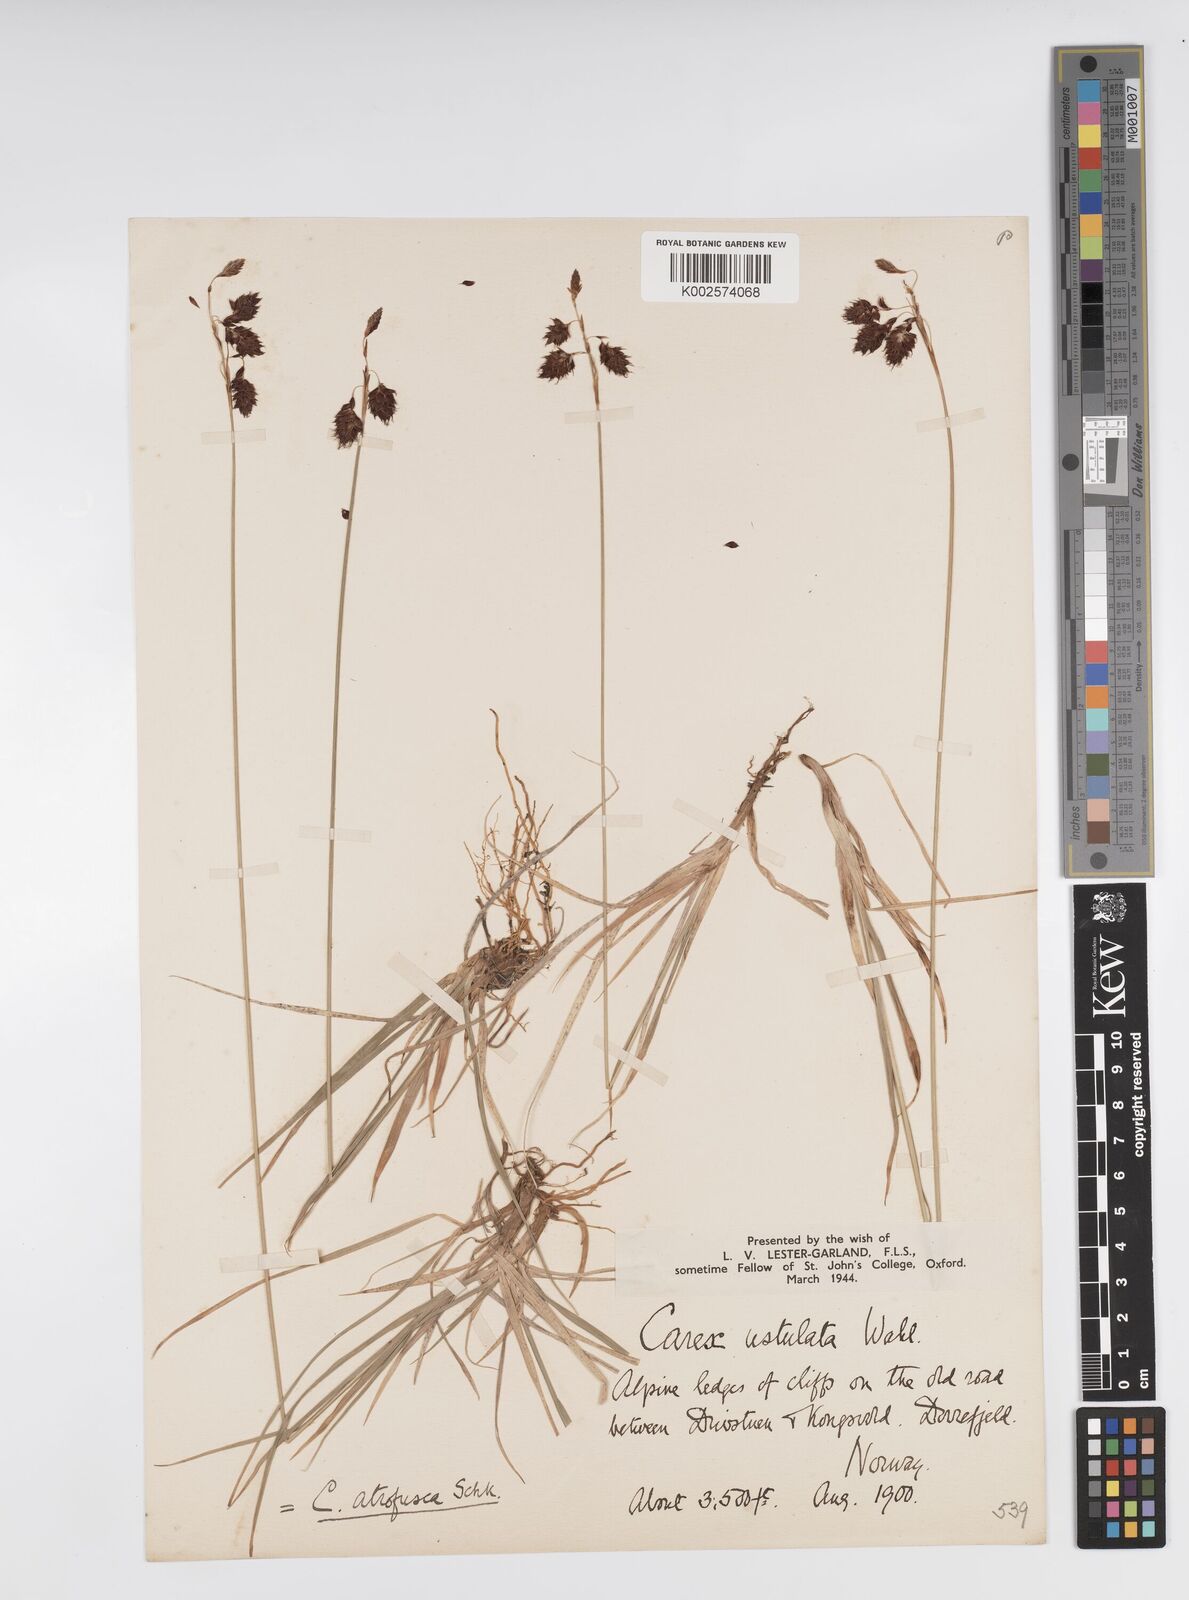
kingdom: Plantae
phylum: Tracheophyta
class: Liliopsida
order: Poales
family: Cyperaceae
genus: Carex
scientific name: Carex atrofusca
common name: Scorched alpine-sedge
